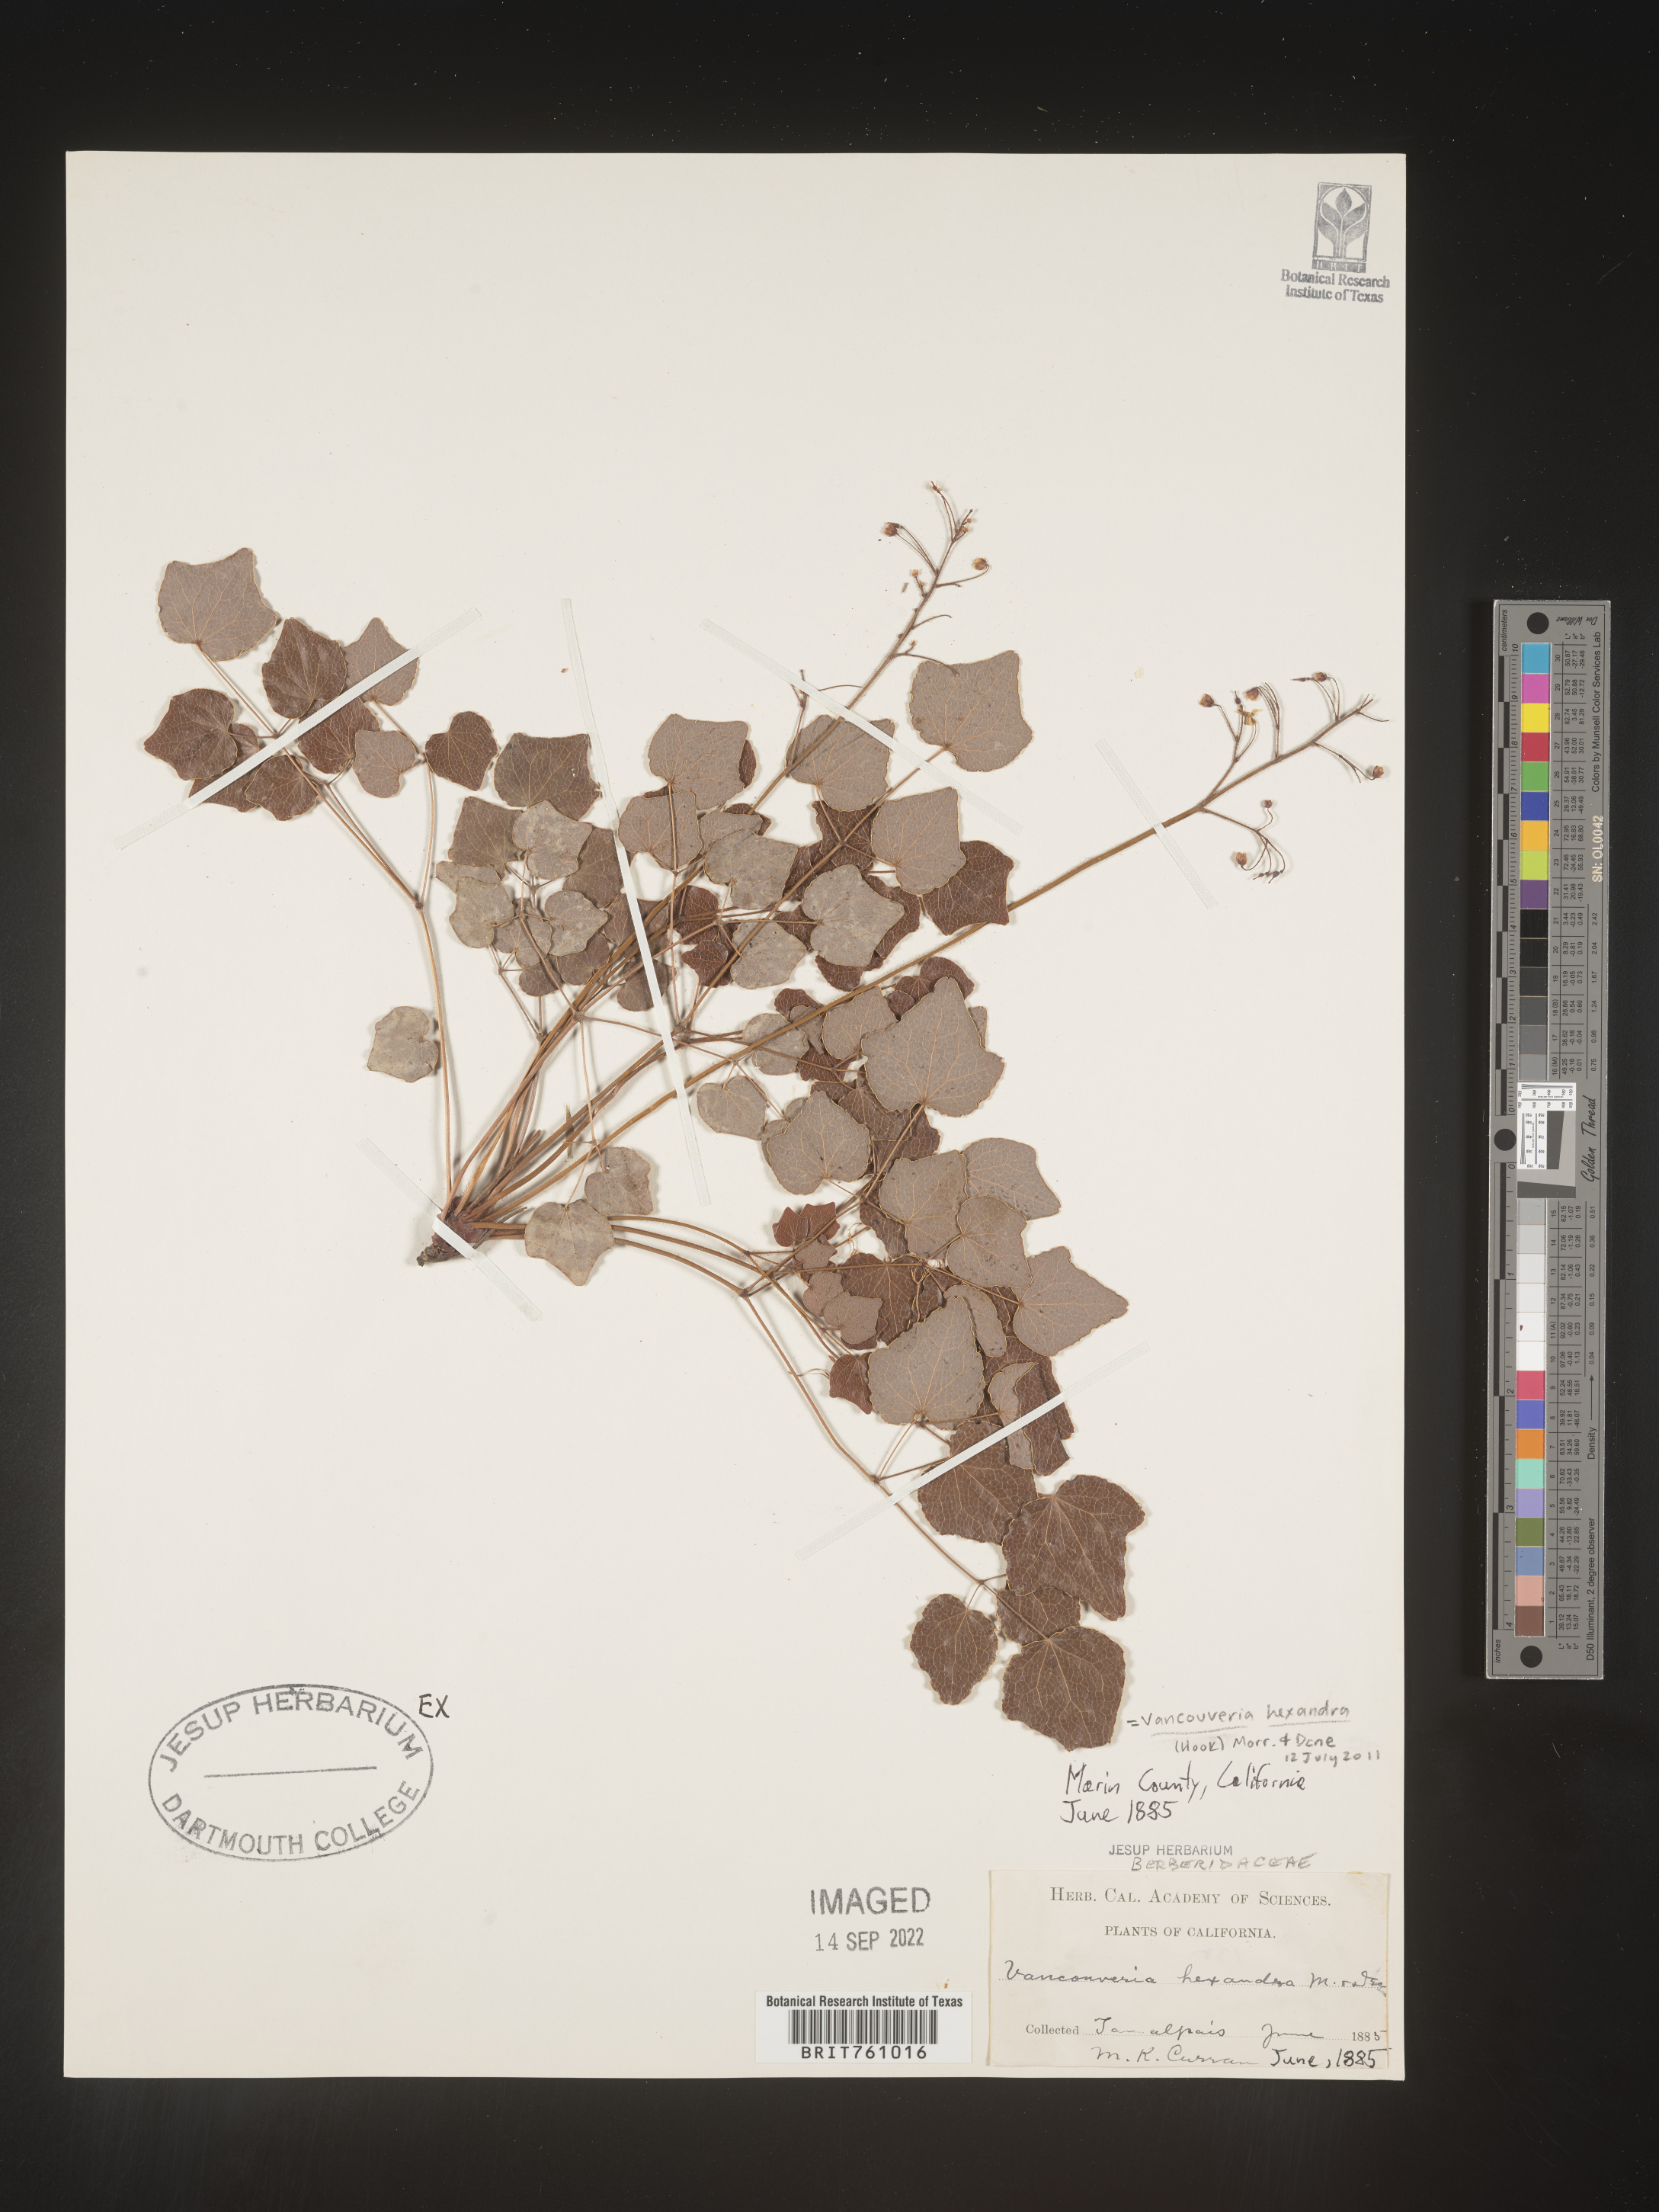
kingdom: Plantae
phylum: Tracheophyta
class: Magnoliopsida
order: Ranunculales
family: Berberidaceae
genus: Vancouveria
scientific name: Vancouveria
